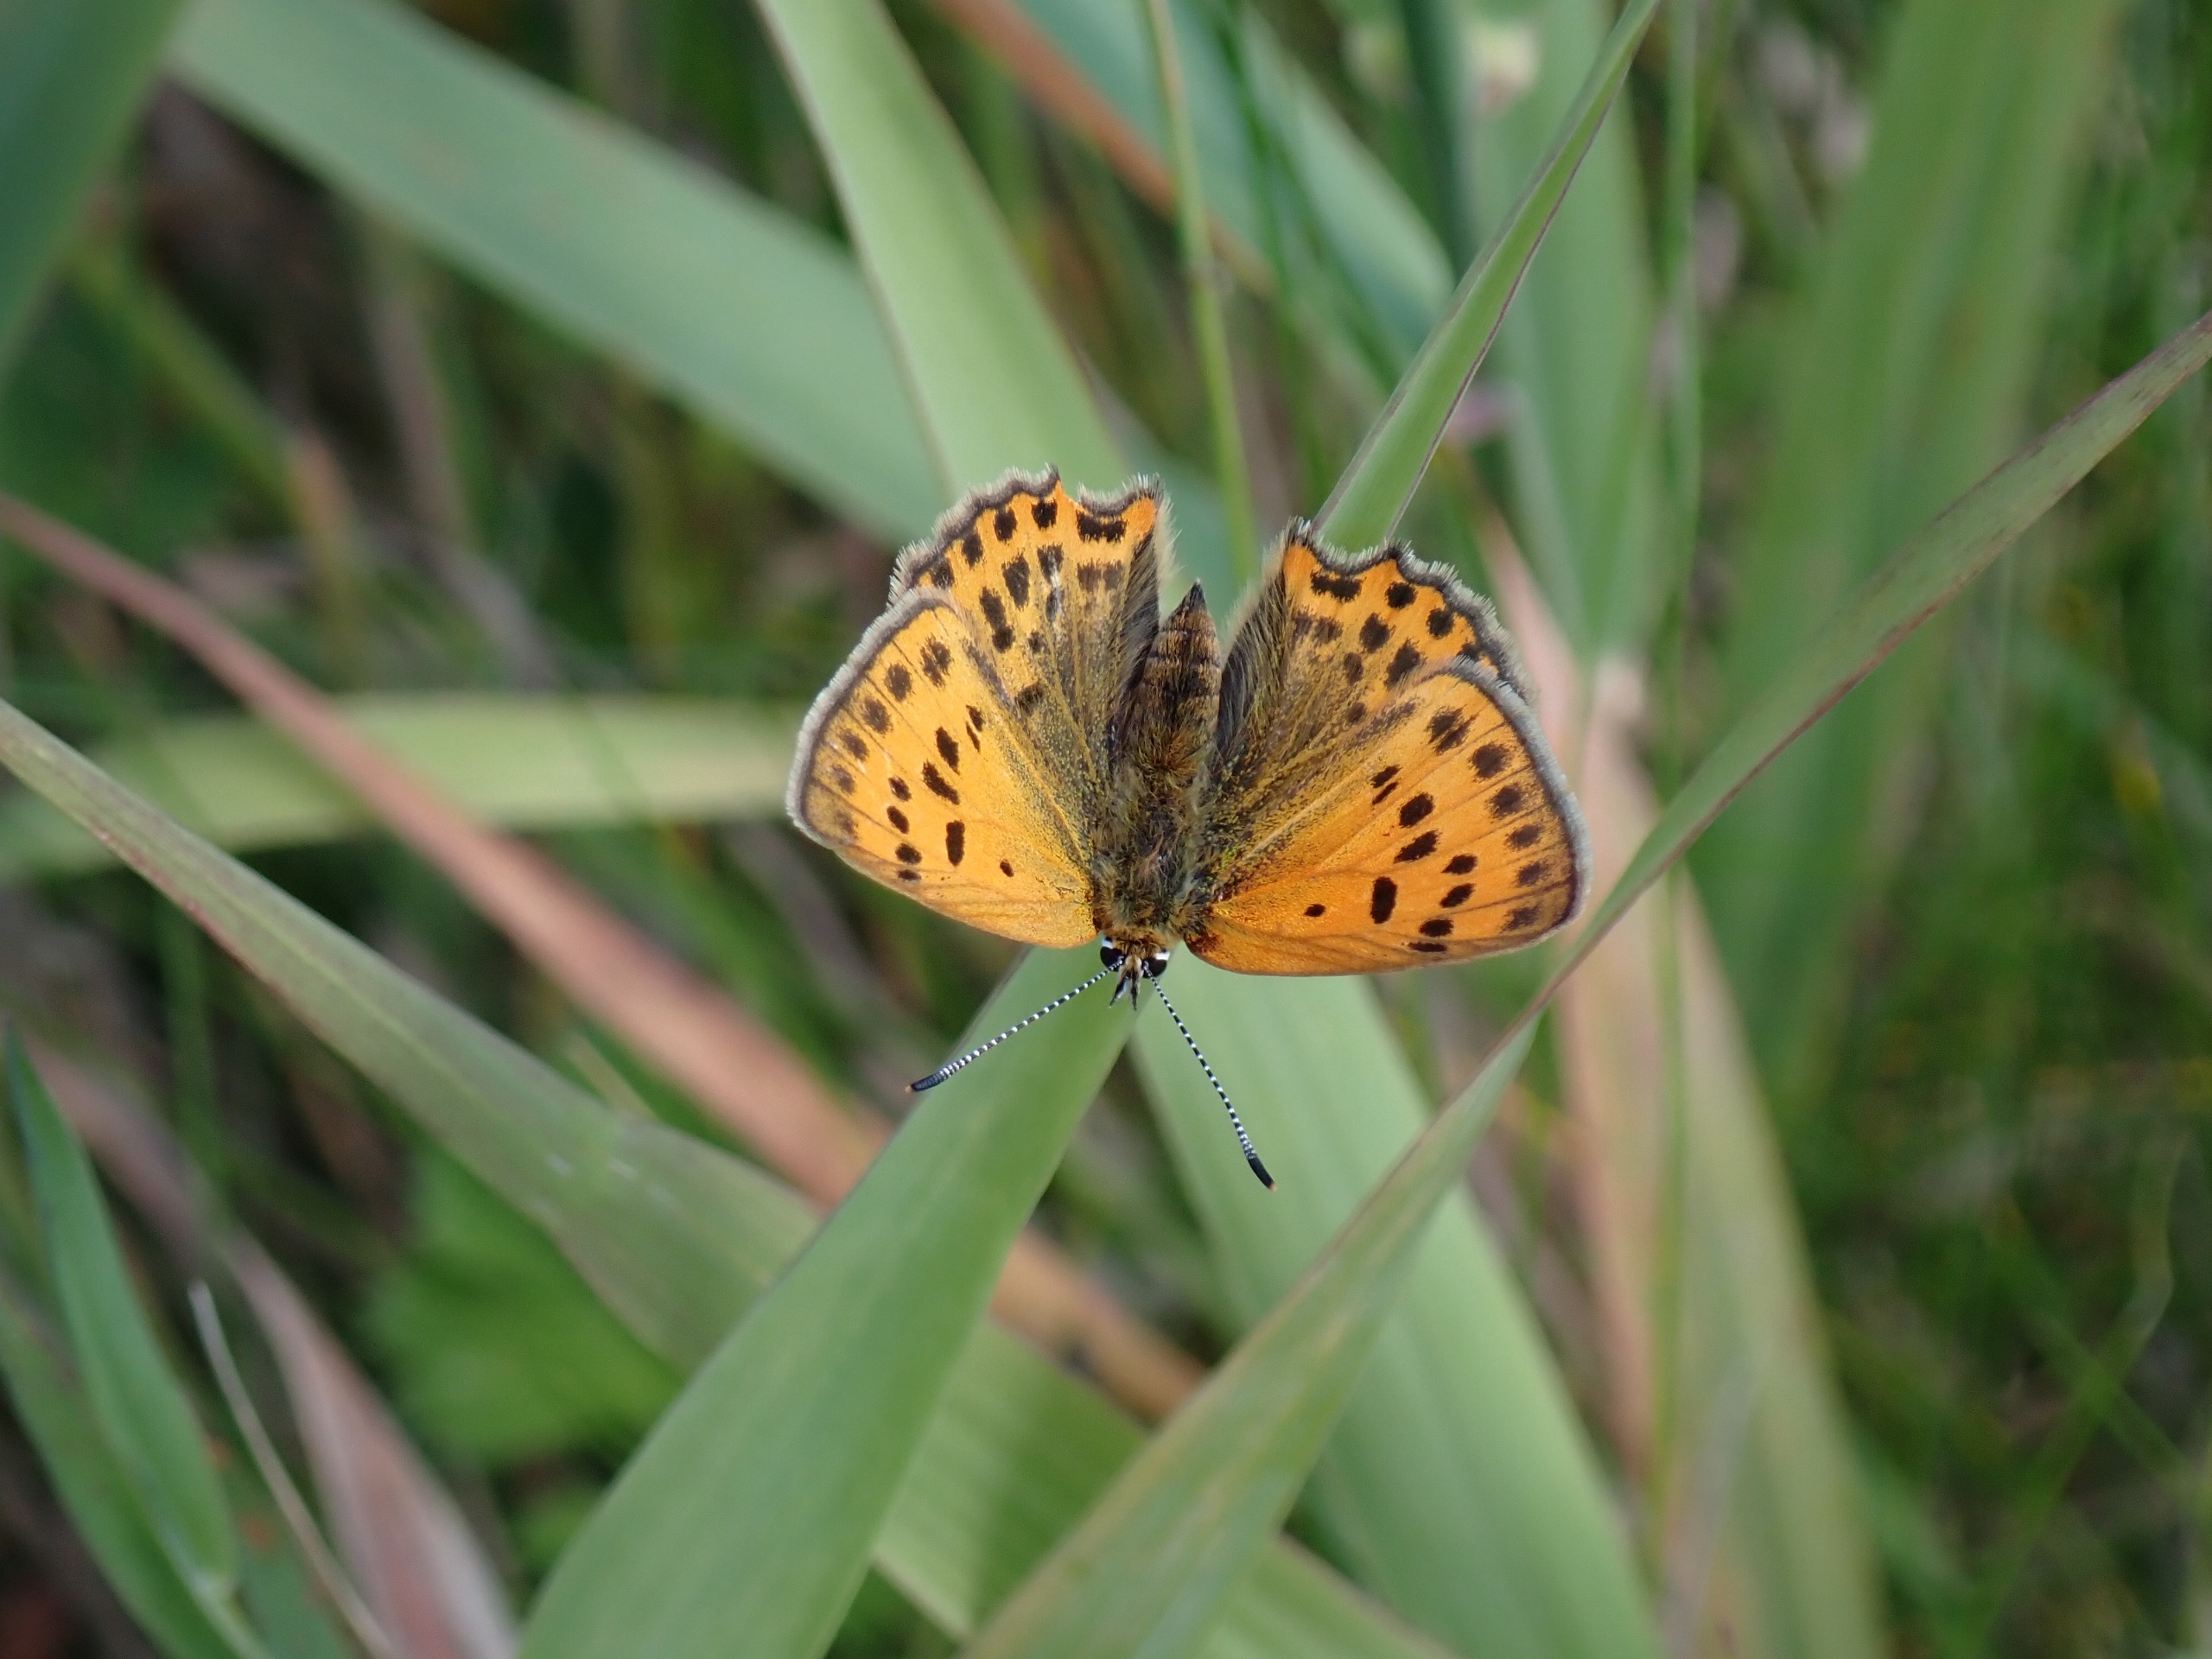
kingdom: Animalia
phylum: Arthropoda
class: Insecta
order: Lepidoptera
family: Lycaenidae
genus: Lycaena
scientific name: Lycaena virgaureae
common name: Dukatsommerfugl
